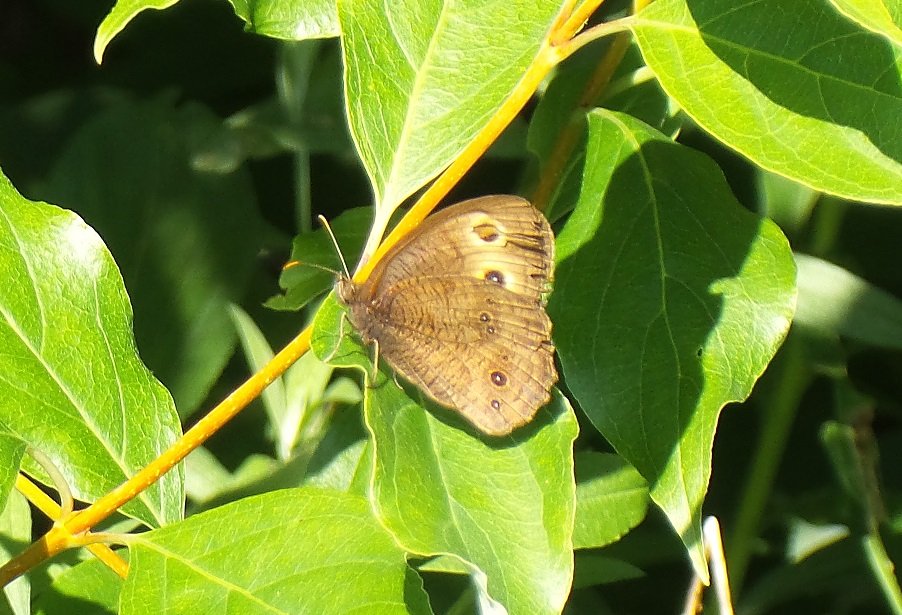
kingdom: Animalia
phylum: Arthropoda
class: Insecta
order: Lepidoptera
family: Nymphalidae
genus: Cercyonis
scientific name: Cercyonis pegala
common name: Common Wood-Nymph
